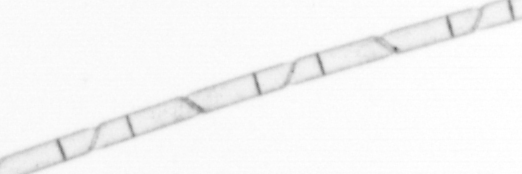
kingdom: Chromista
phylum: Ochrophyta
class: Bacillariophyceae
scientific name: Bacillariophyceae
